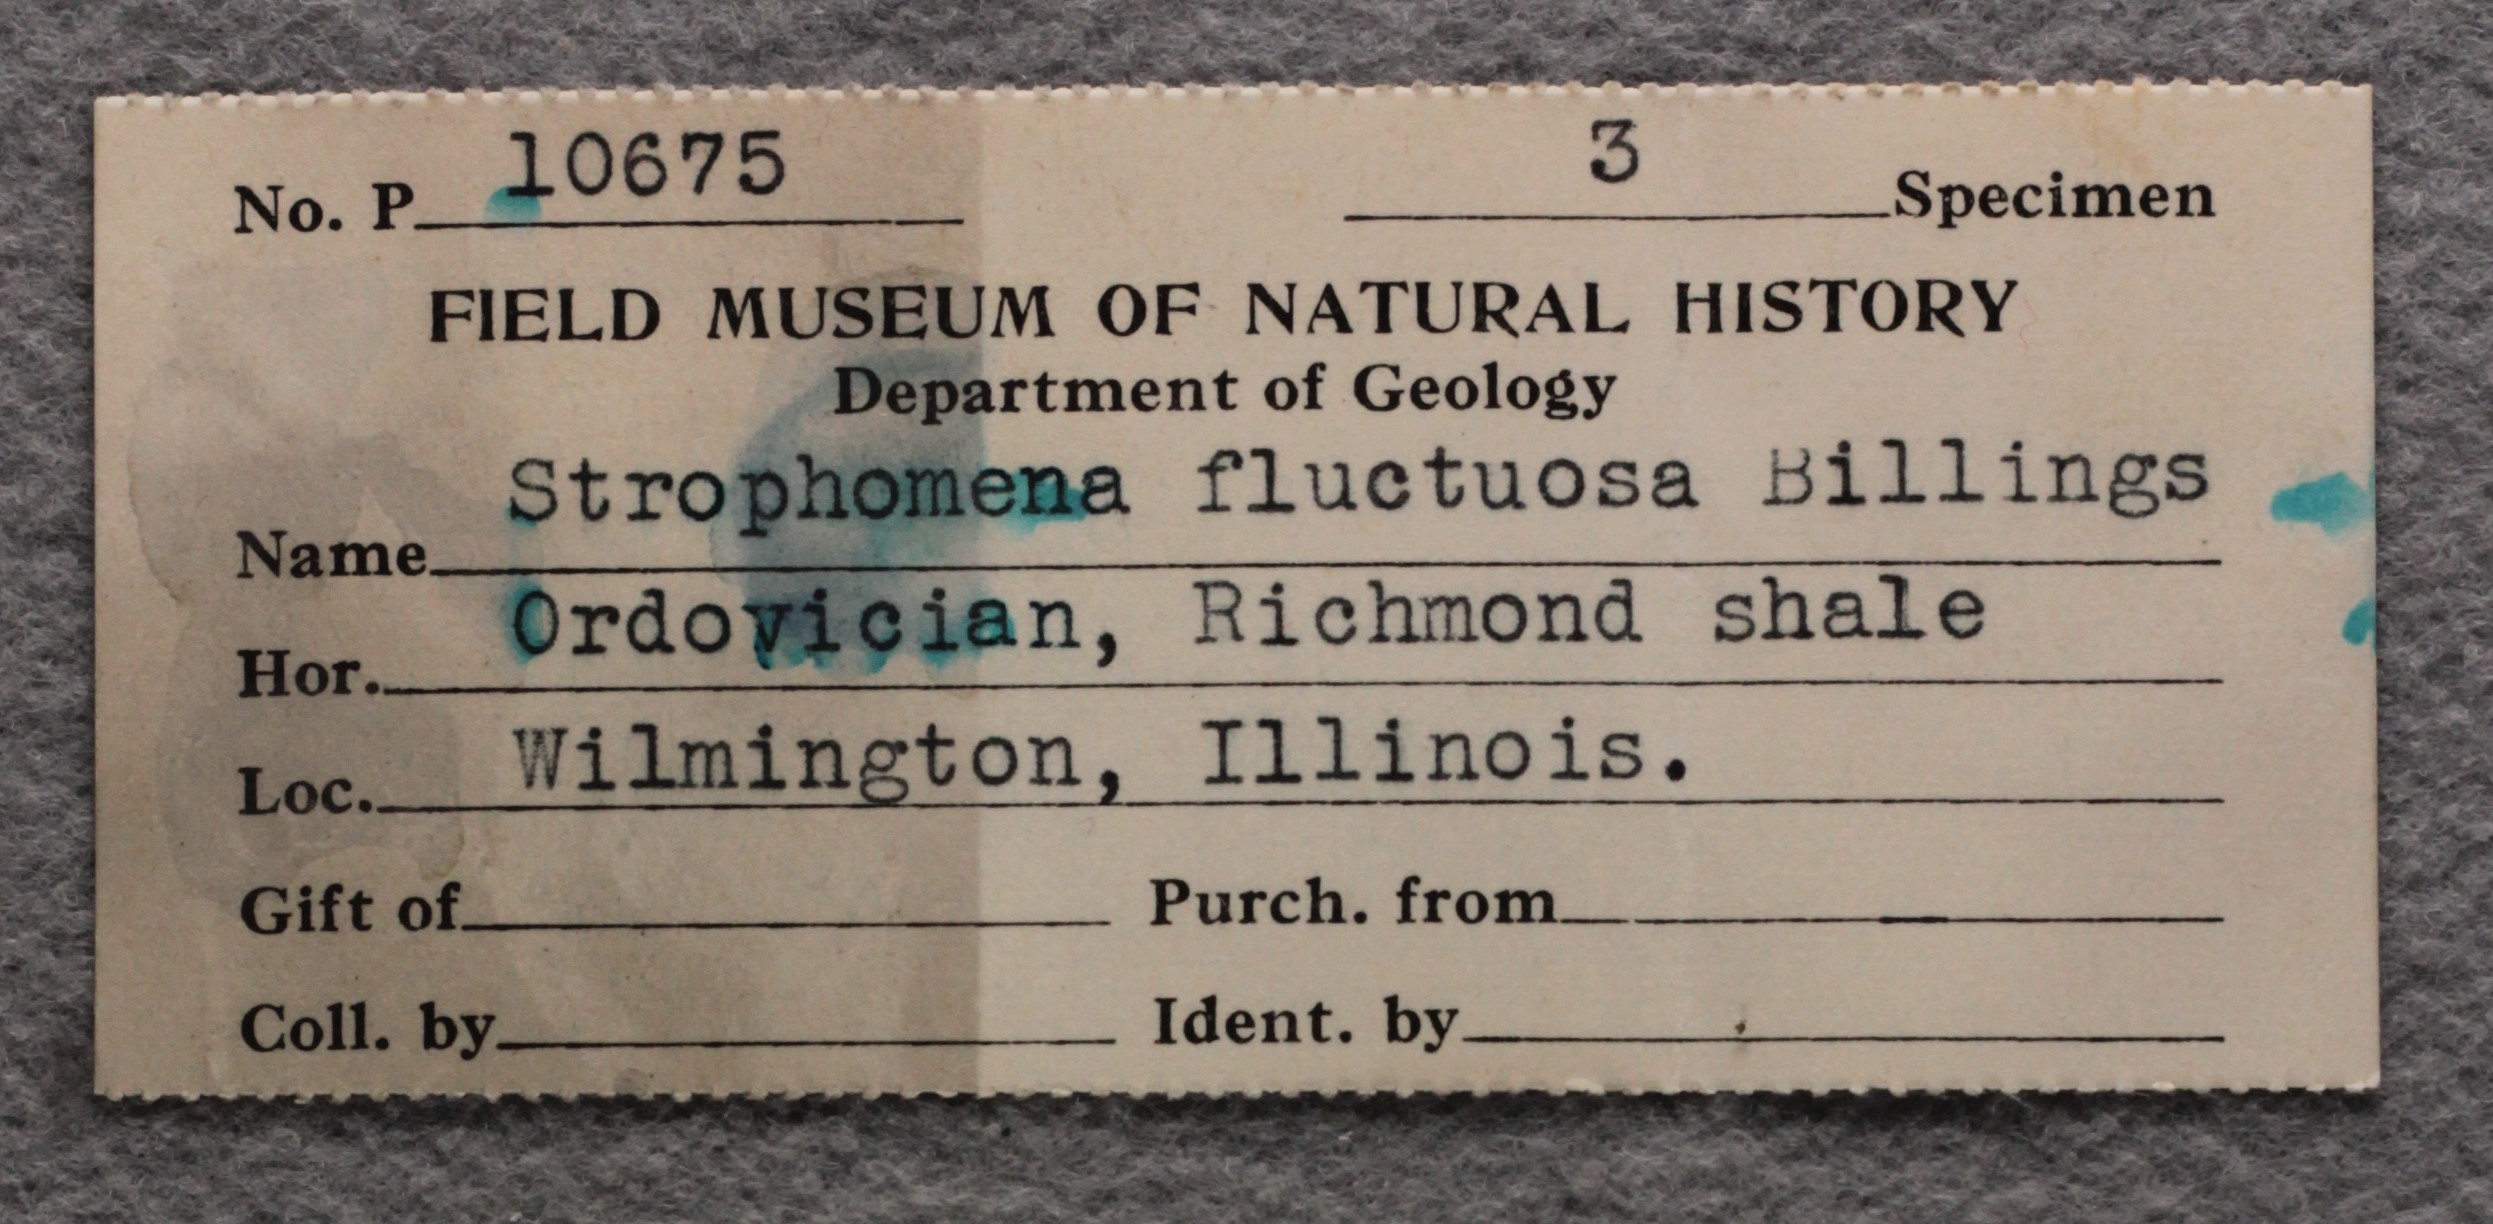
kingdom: Animalia
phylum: Brachiopoda
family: Strophomenidae
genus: Nasutimena
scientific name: Nasutimena Strophomena fluctuosa
